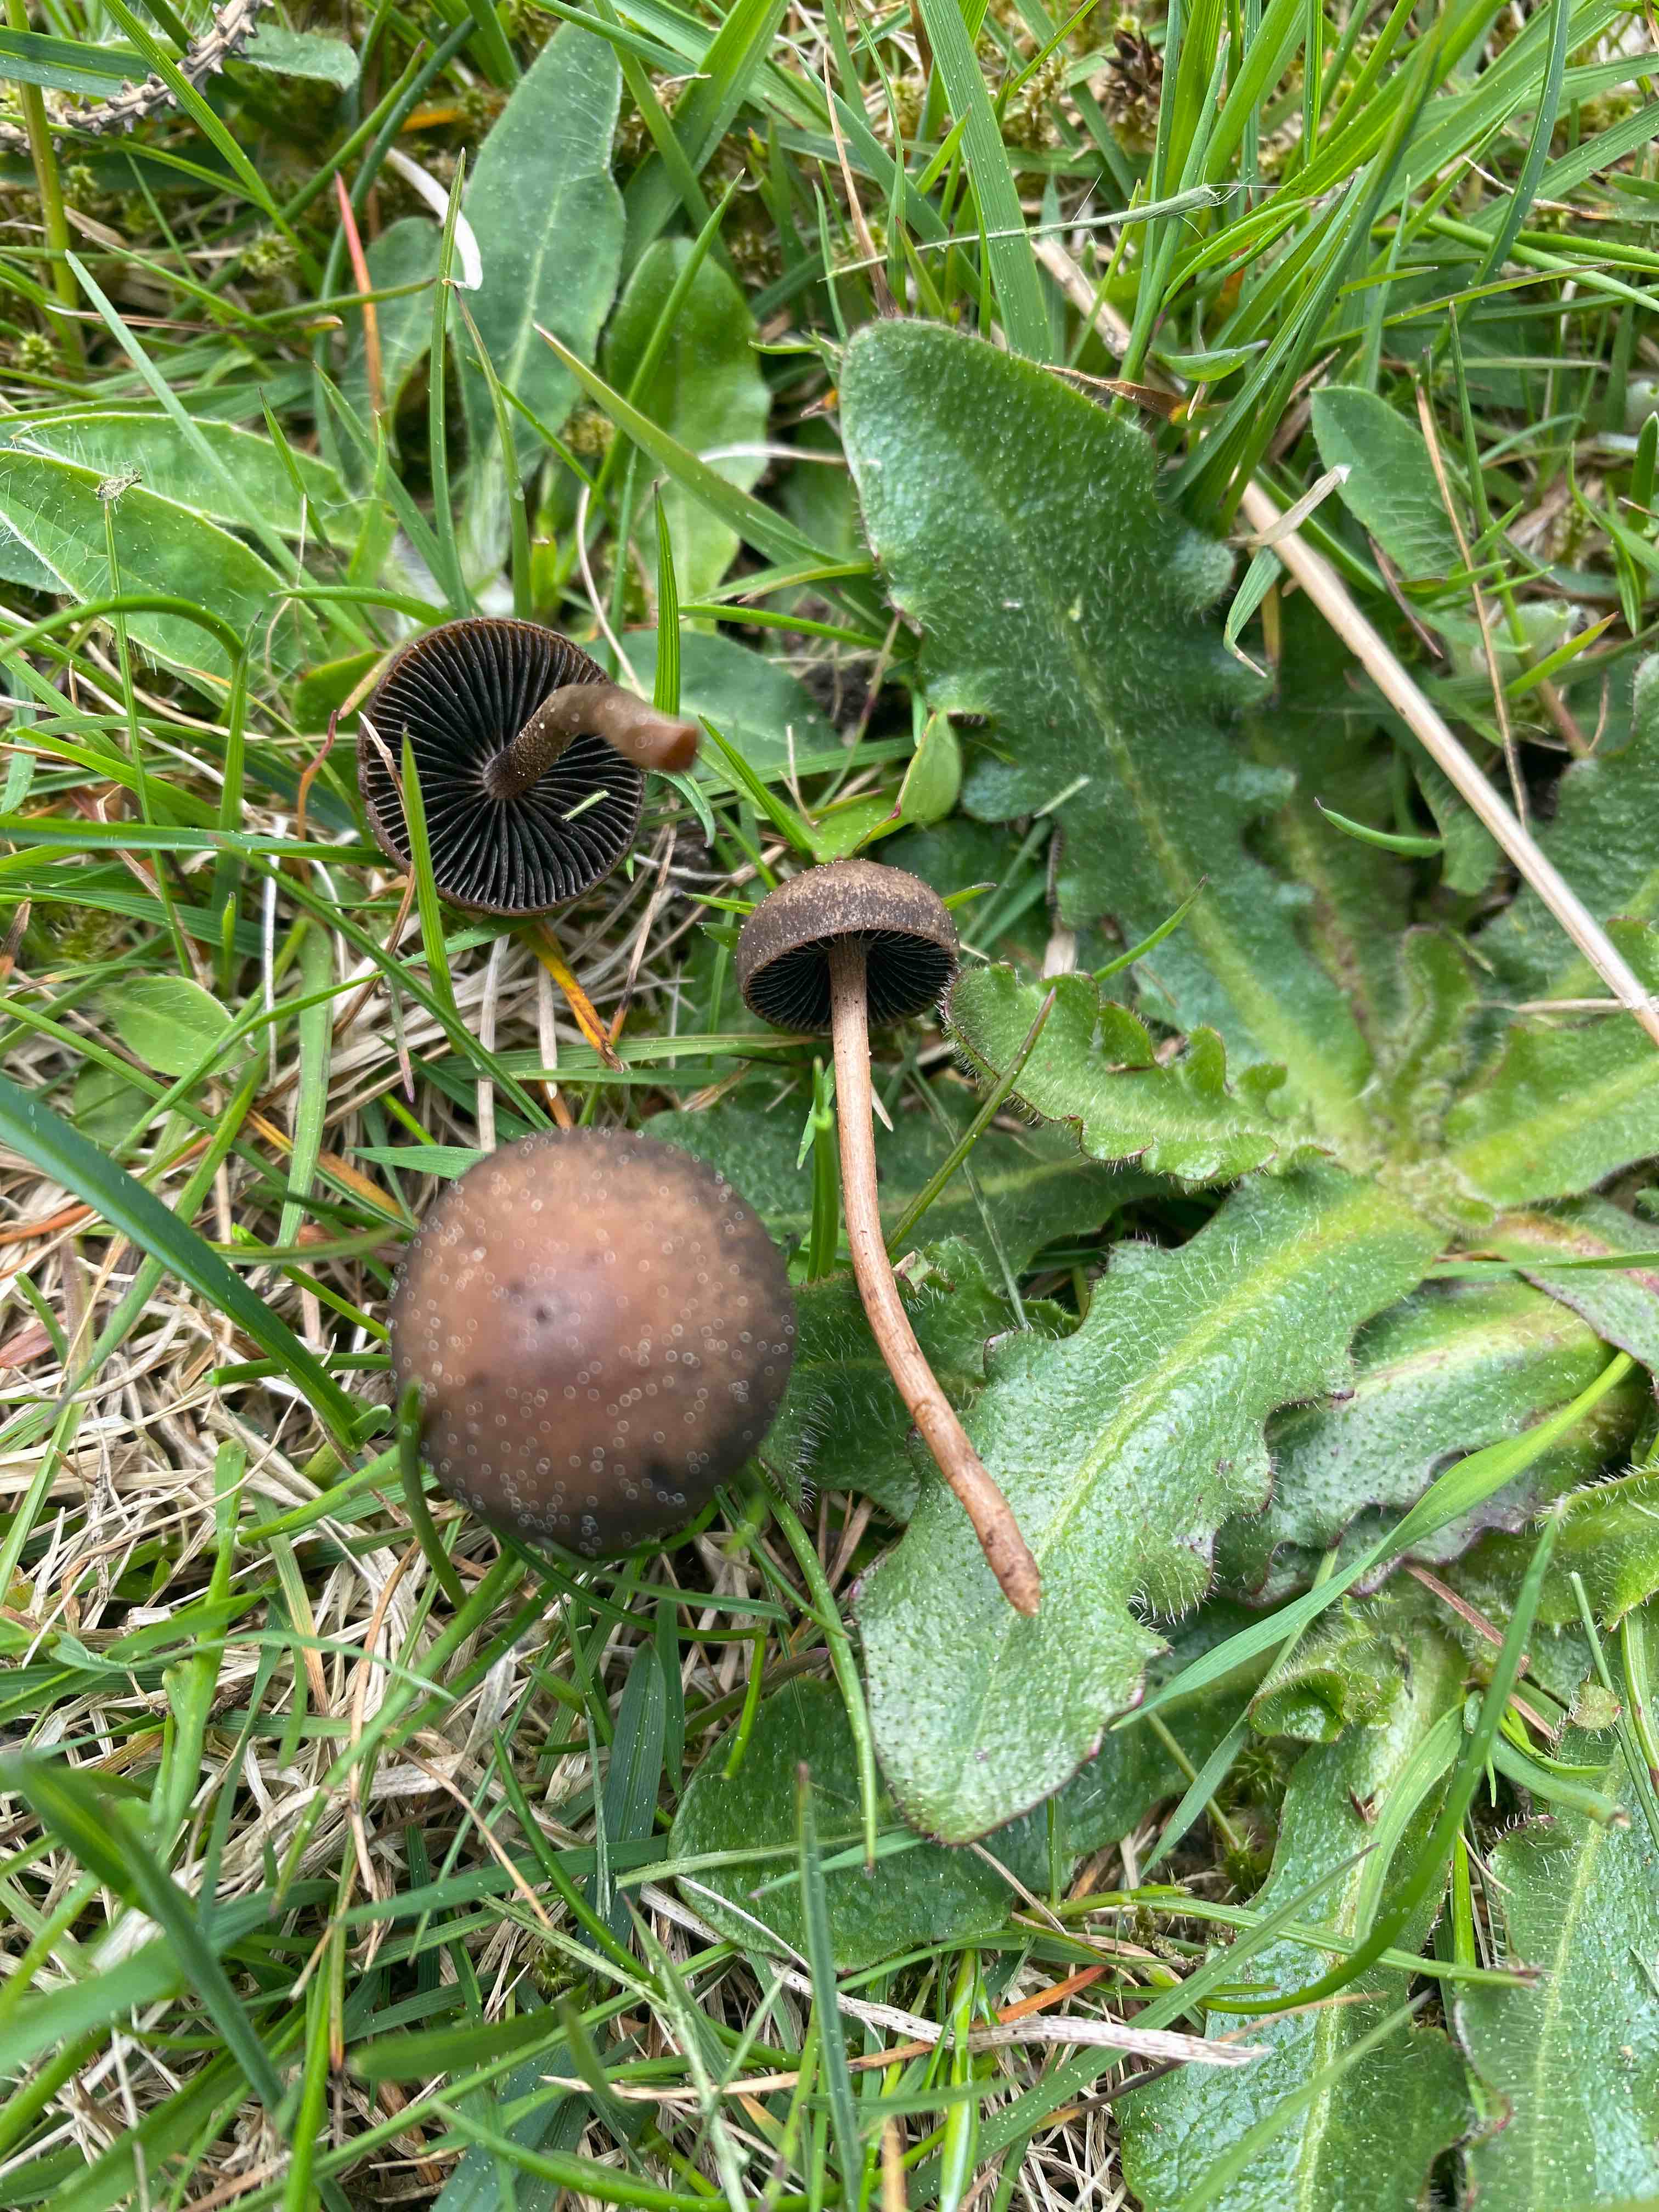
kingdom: Fungi
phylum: Basidiomycota
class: Agaricomycetes
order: Agaricales
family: Bolbitiaceae
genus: Panaeolus
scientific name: Panaeolus fimicola
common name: tidlig glanshat
